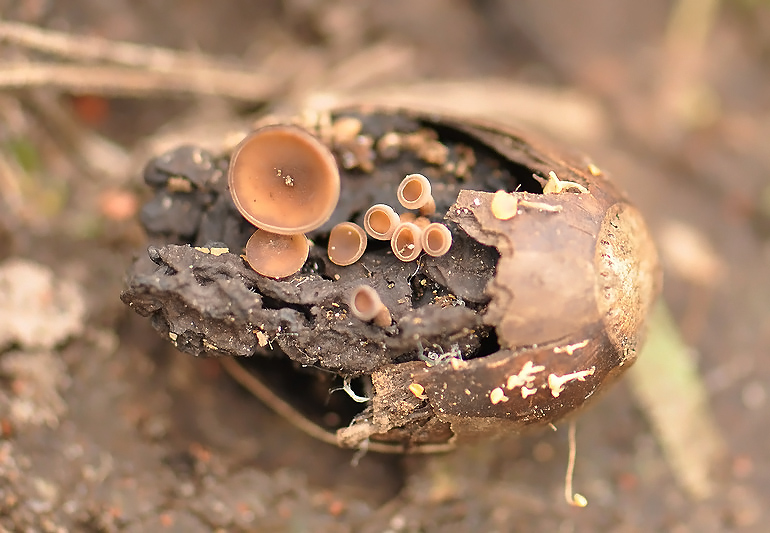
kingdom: Fungi
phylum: Ascomycota
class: Leotiomycetes
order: Helotiales
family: Sclerotiniaceae
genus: Ciboria
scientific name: Ciboria batschiana
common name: agern-knoldskive
